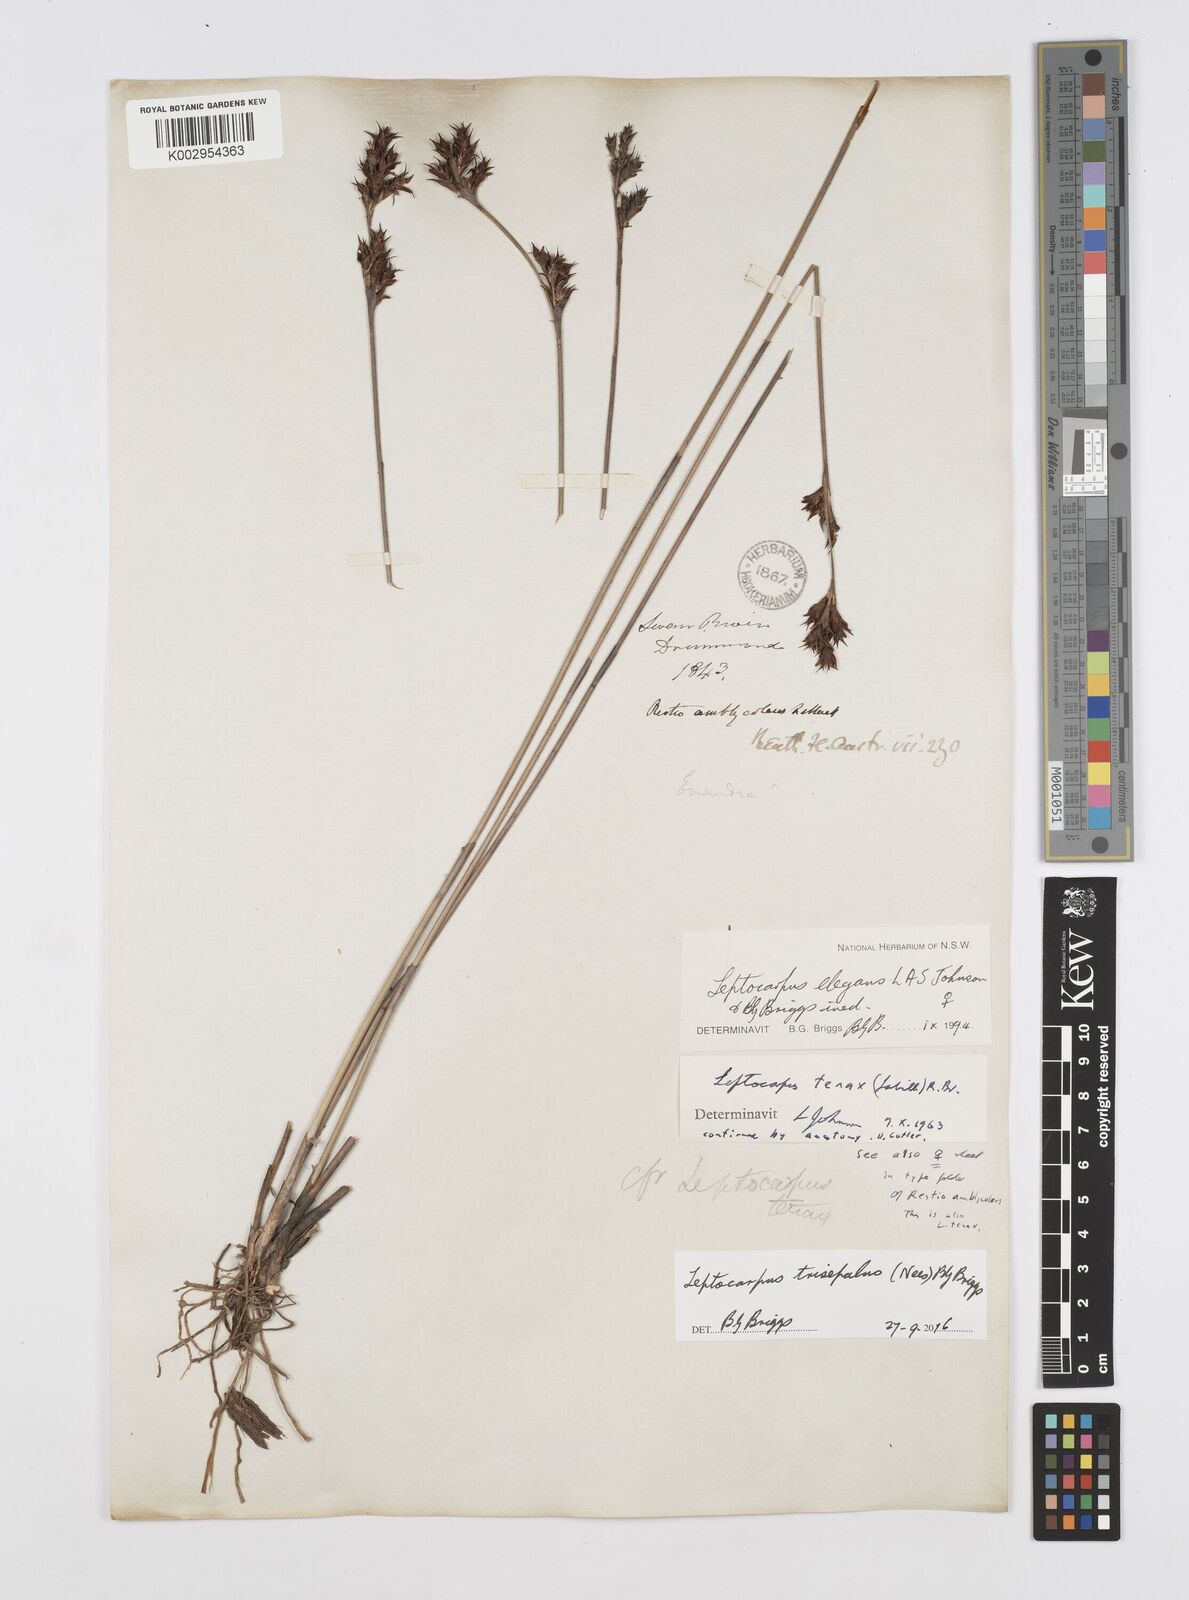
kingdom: Plantae
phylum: Tracheophyta
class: Liliopsida
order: Poales
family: Restionaceae
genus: Leptocarpus
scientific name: Leptocarpus trisepalus
